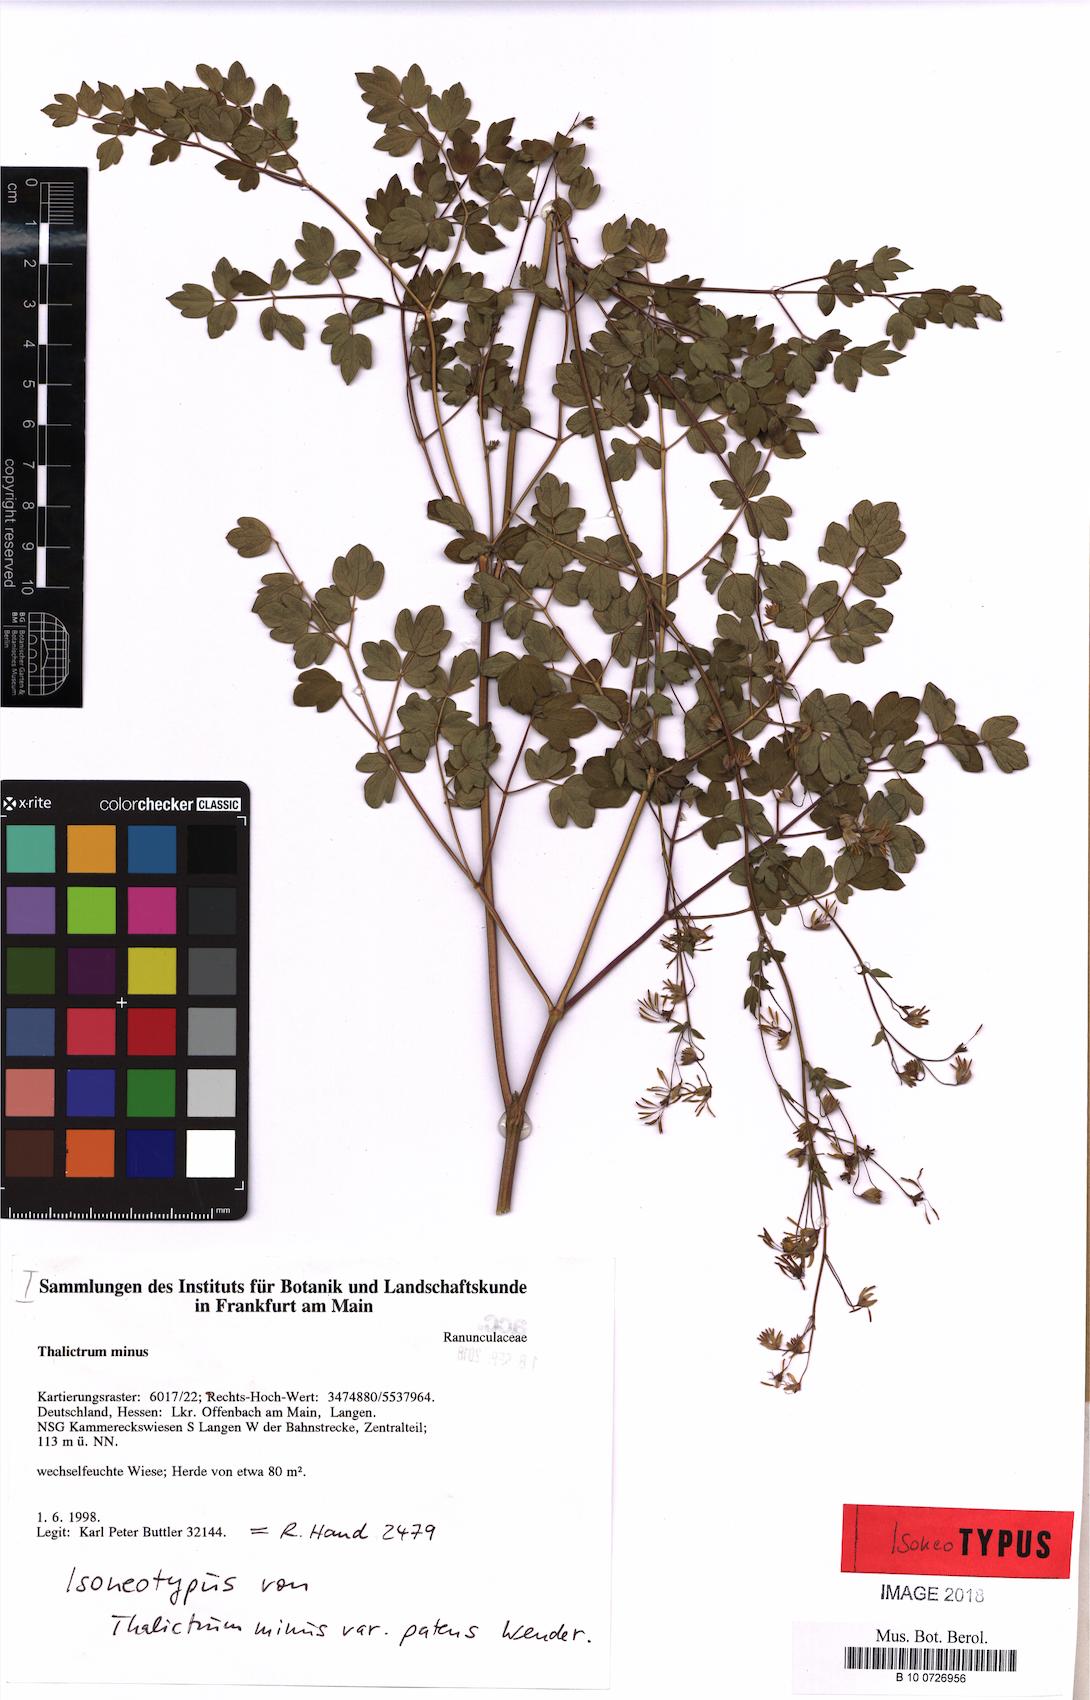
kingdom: Plantae
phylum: Tracheophyta
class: Magnoliopsida
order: Ranunculales
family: Ranunculaceae
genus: Thalictrum
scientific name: Thalictrum minus
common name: Lesser meadow-rue
